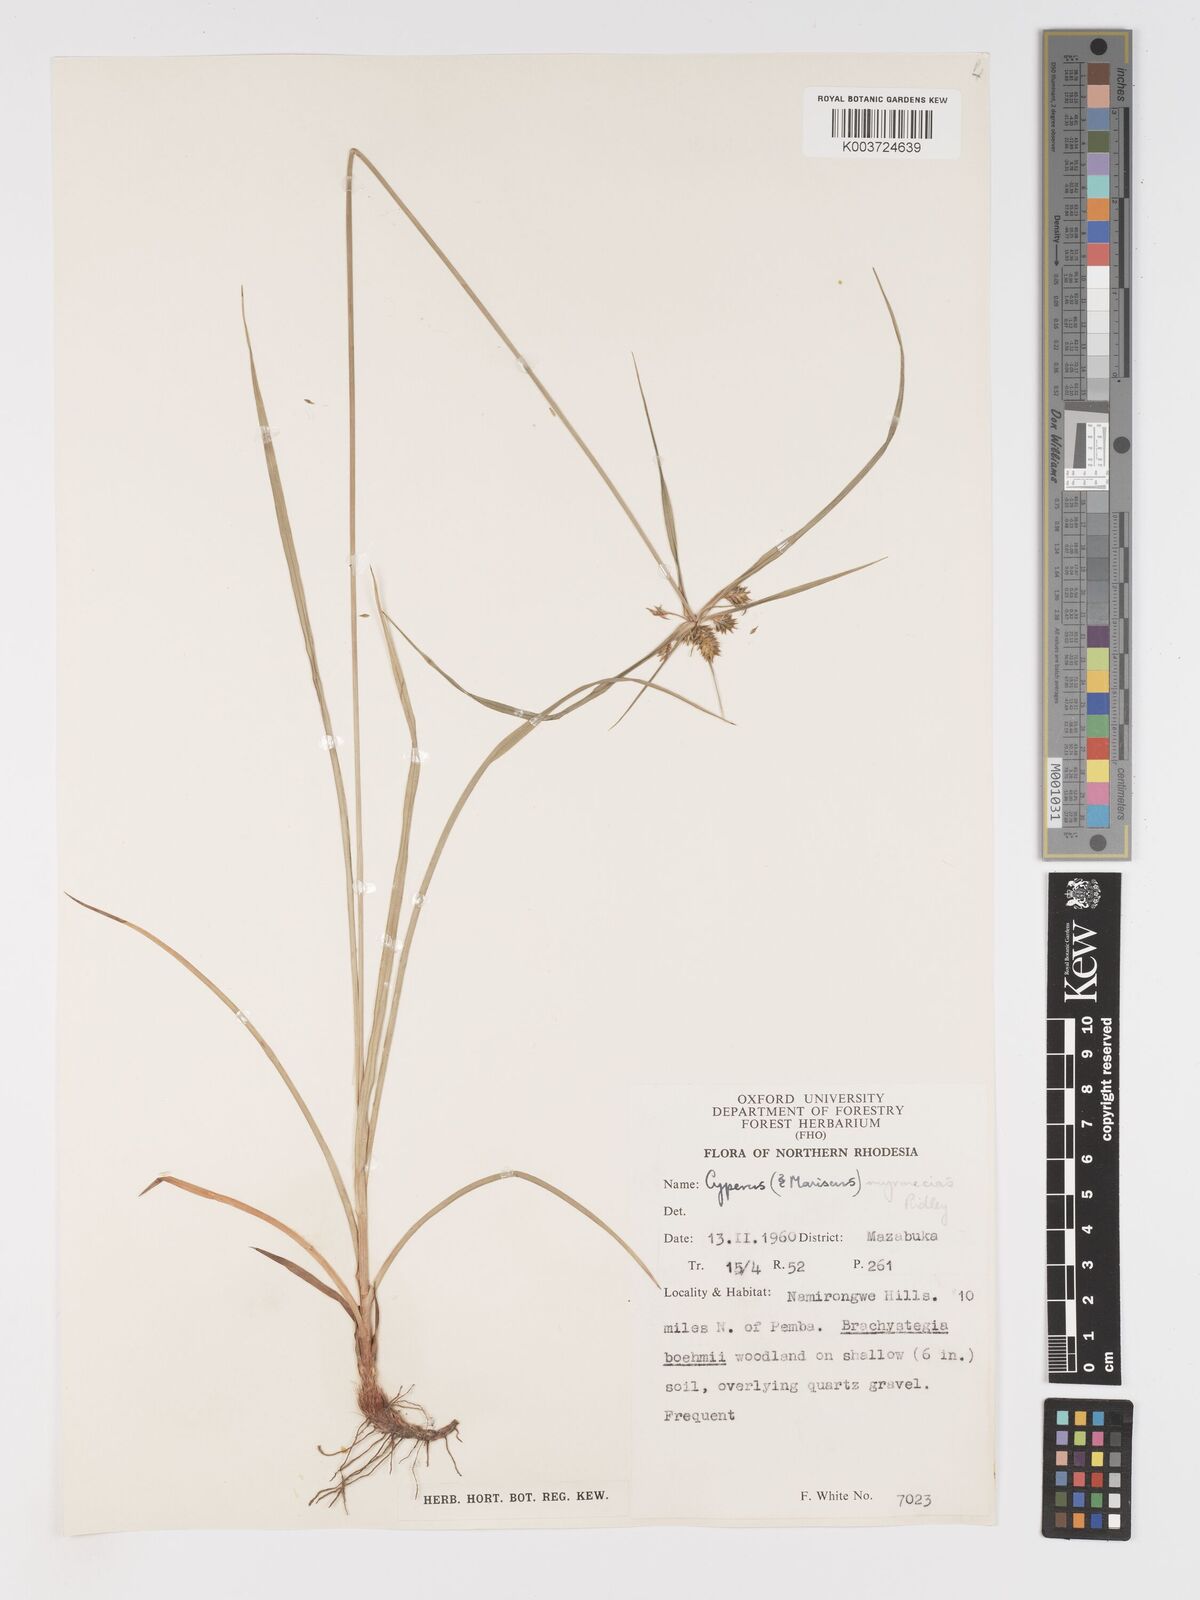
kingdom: Plantae
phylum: Tracheophyta
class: Liliopsida
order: Poales
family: Cyperaceae
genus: Cyperus
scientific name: Cyperus myrmecias
